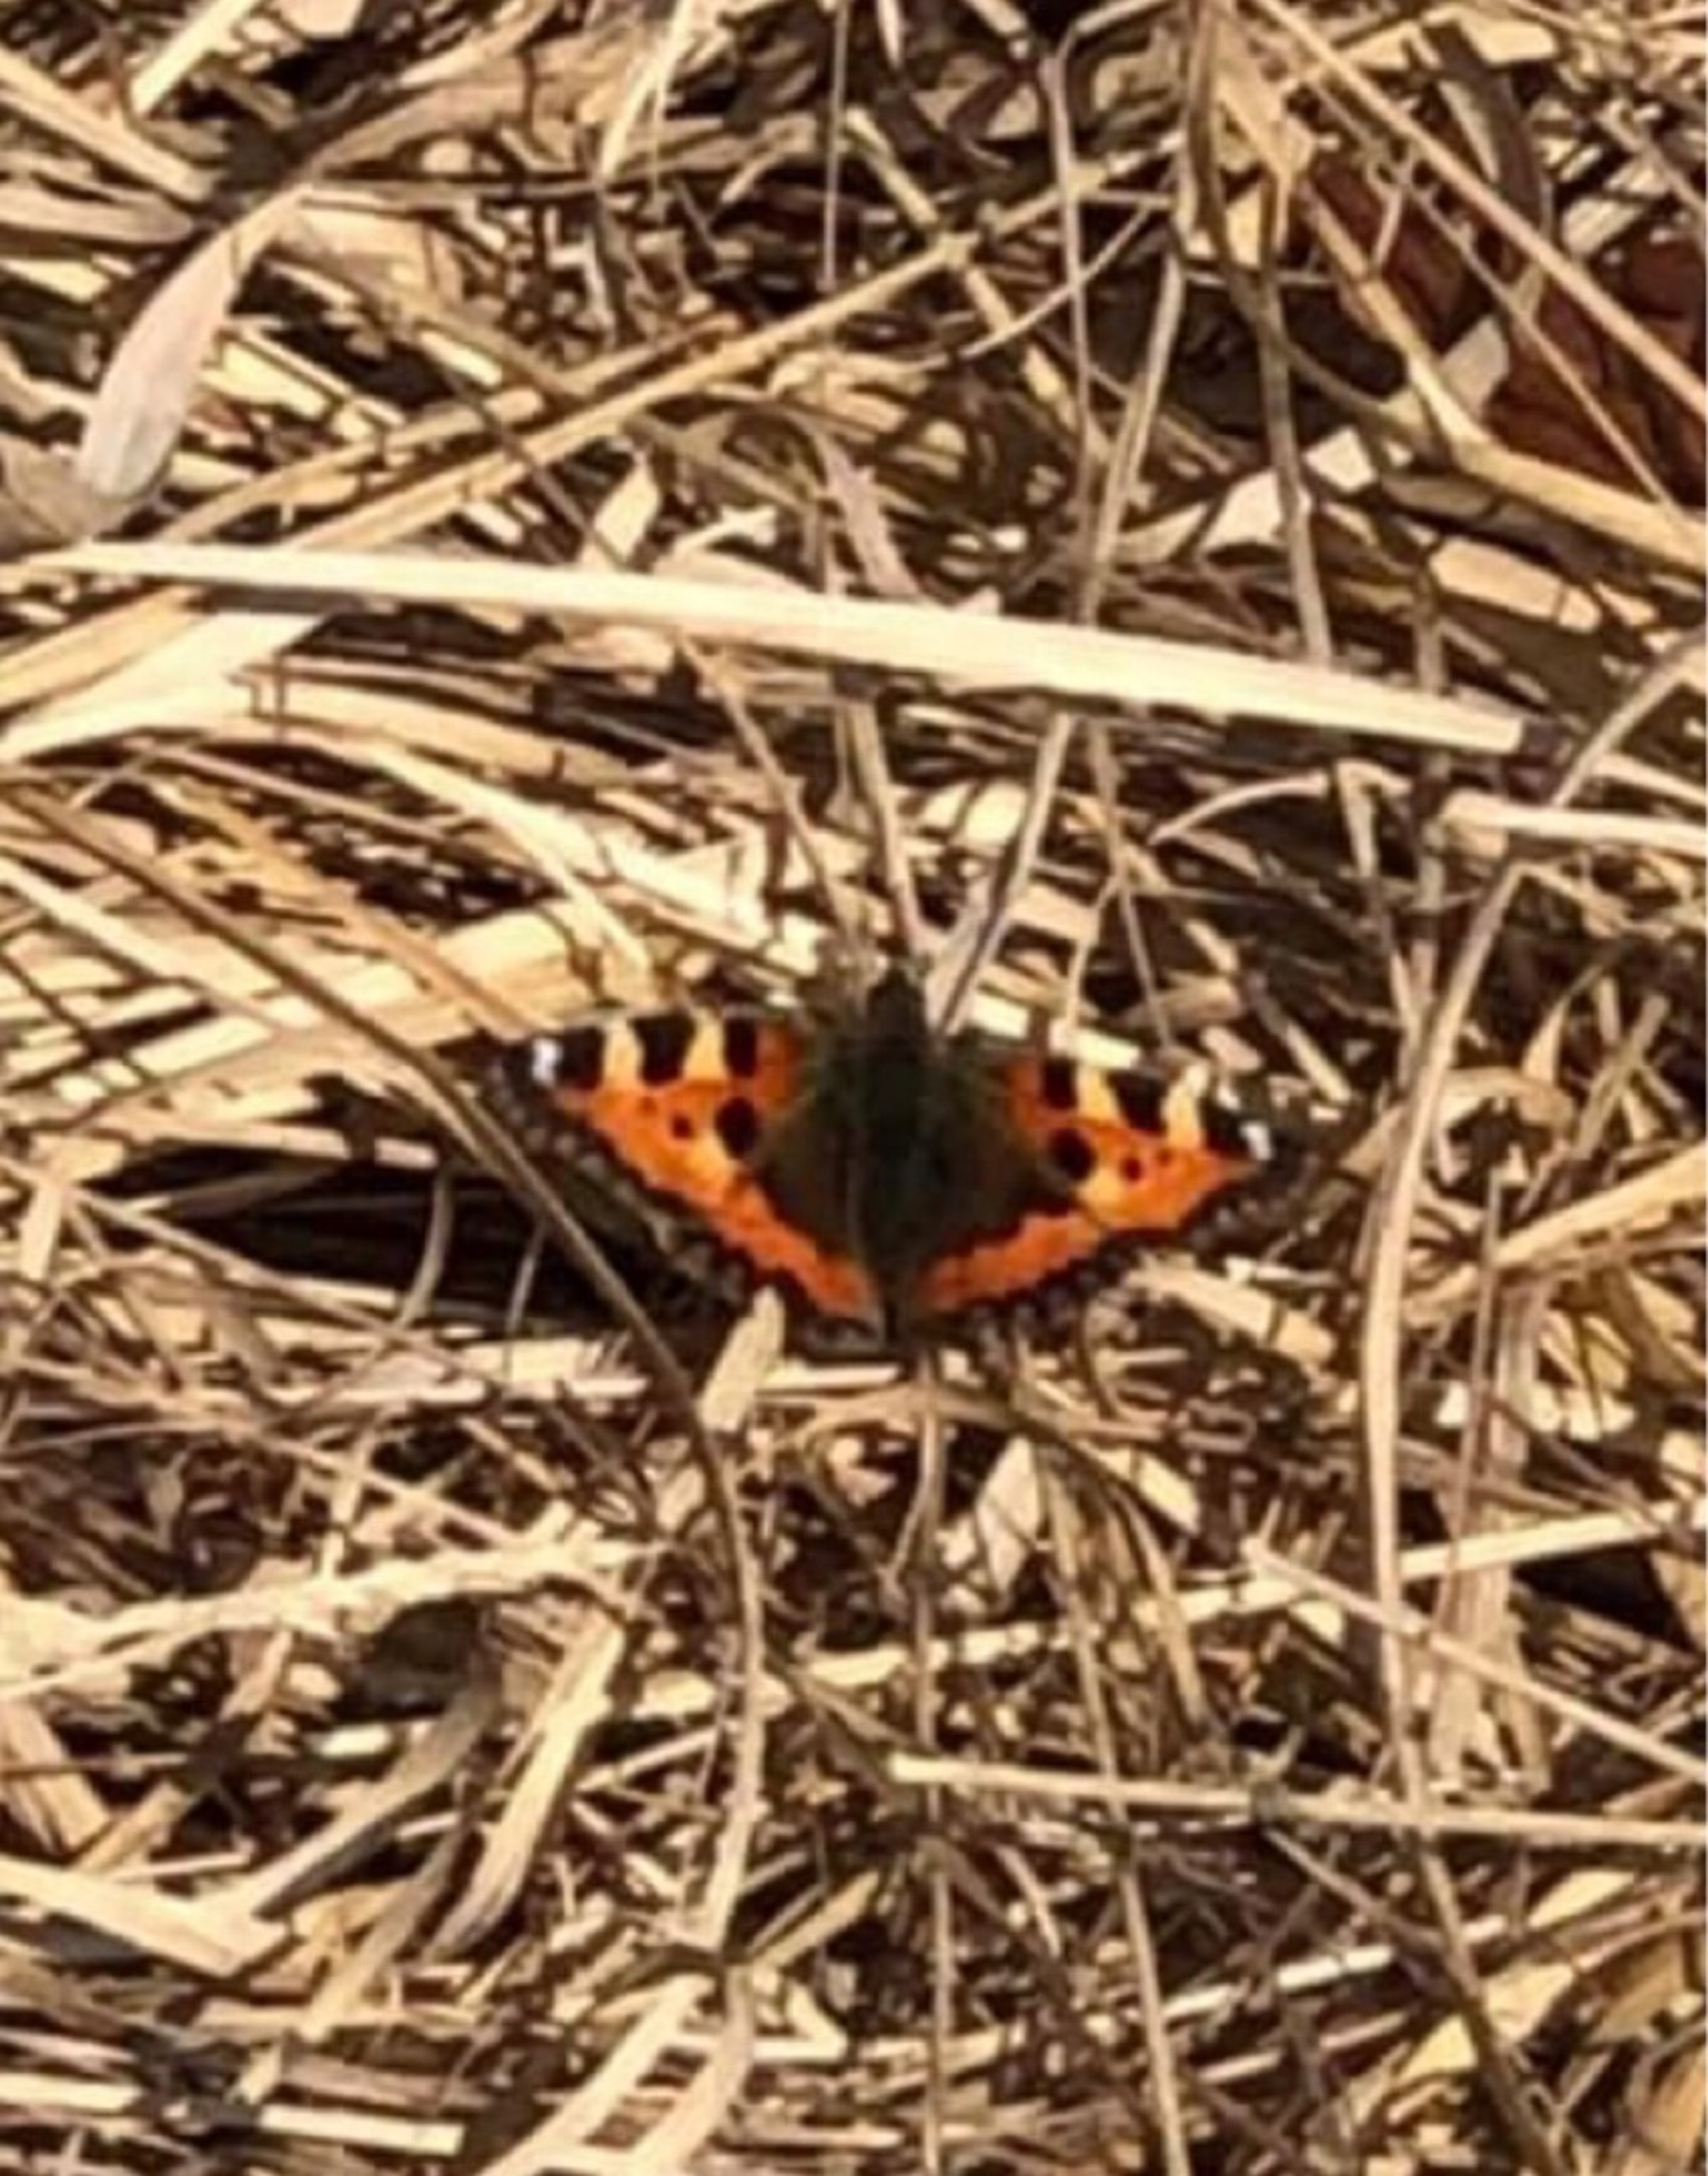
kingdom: Animalia
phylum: Arthropoda
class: Insecta
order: Lepidoptera
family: Nymphalidae
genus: Aglais
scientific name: Aglais urticae
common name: Nældens takvinge
